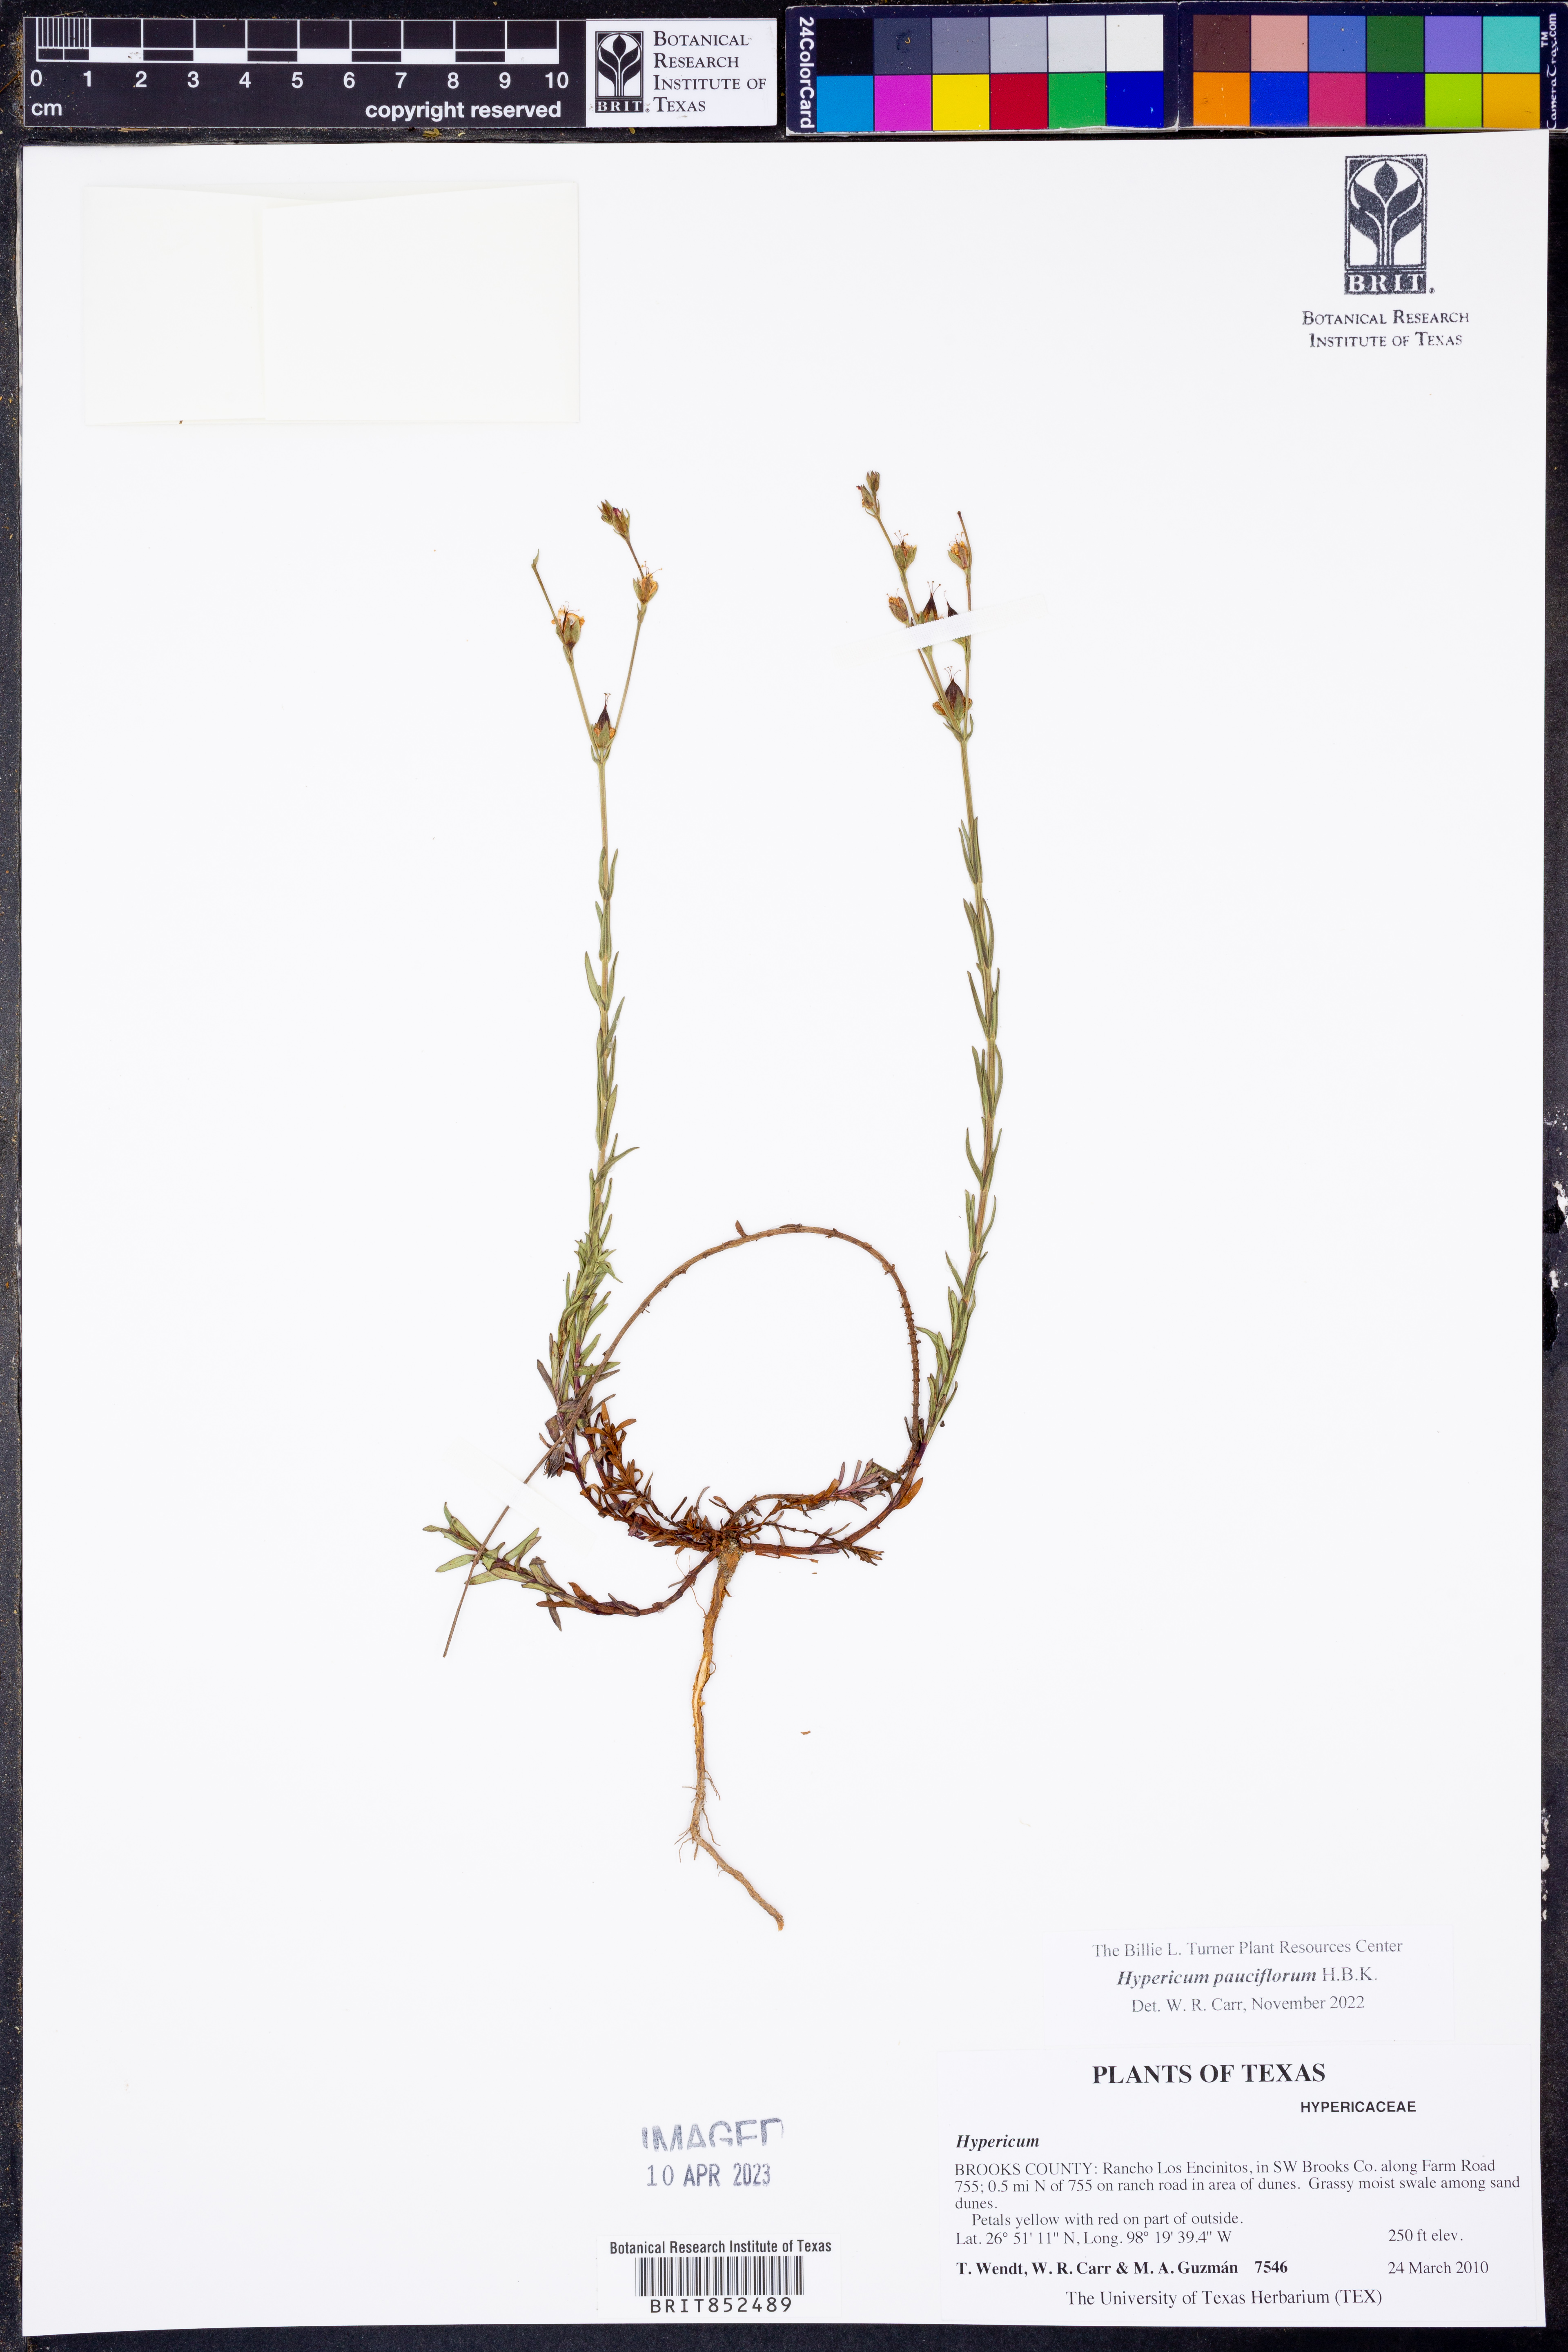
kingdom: Plantae
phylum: Tracheophyta
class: Magnoliopsida
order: Malpighiales
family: Hypericaceae
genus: Hypericum
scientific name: Hypericum pauciflorum
